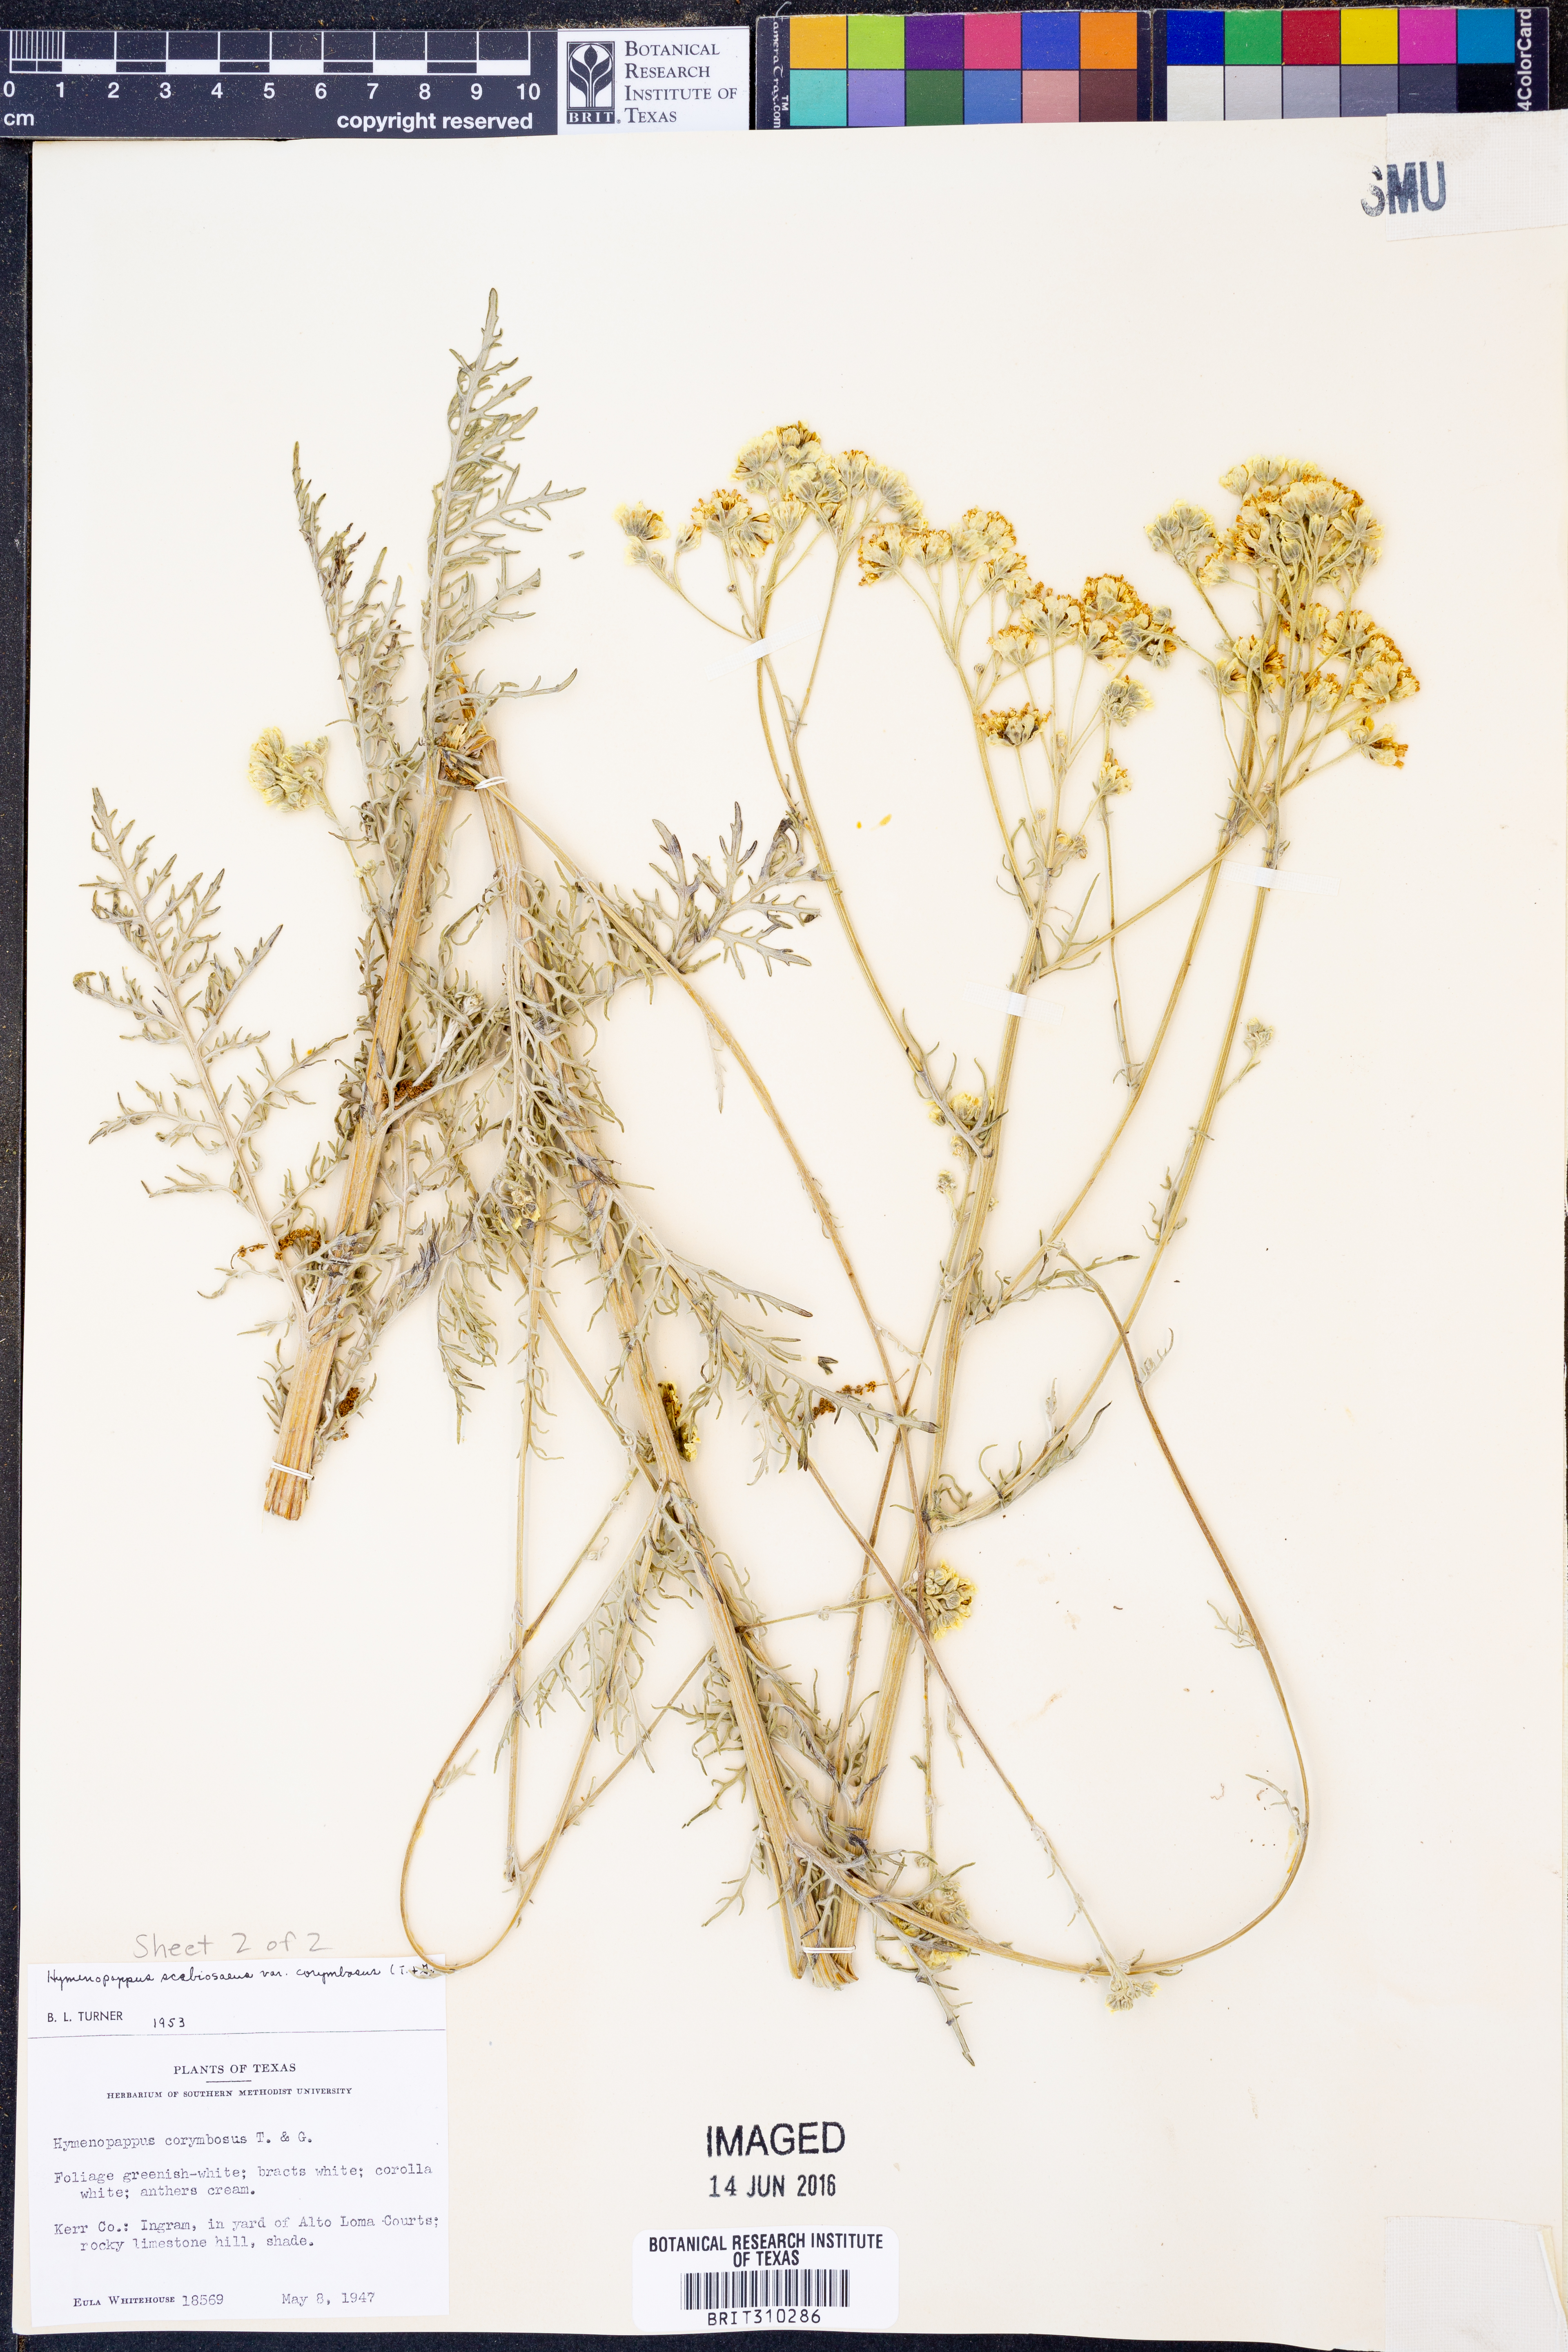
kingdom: Plantae
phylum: Tracheophyta
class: Magnoliopsida
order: Asterales
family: Asteraceae
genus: Hymenopappus
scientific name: Hymenopappus scabiosaeus
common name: Carolina woollywhite
